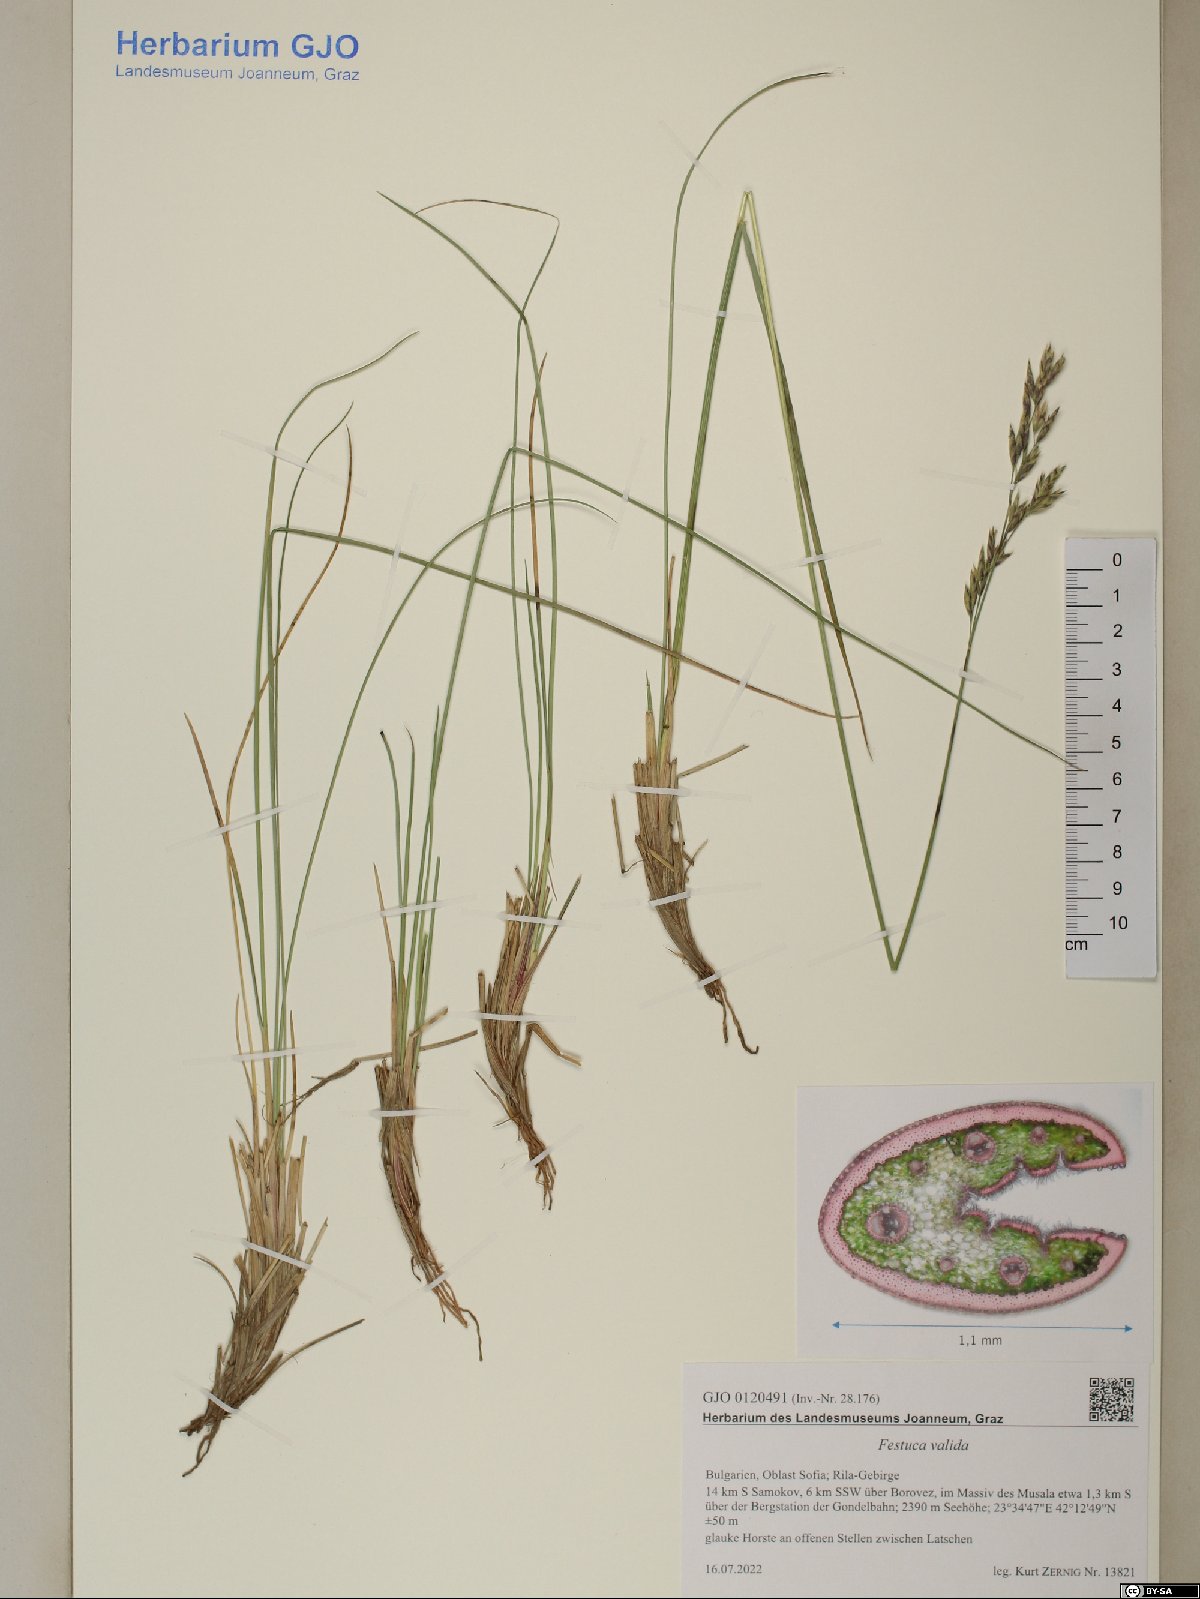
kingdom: Plantae
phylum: Tracheophyta
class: Liliopsida
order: Poales
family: Poaceae
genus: Festuca
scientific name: Festuca valida
